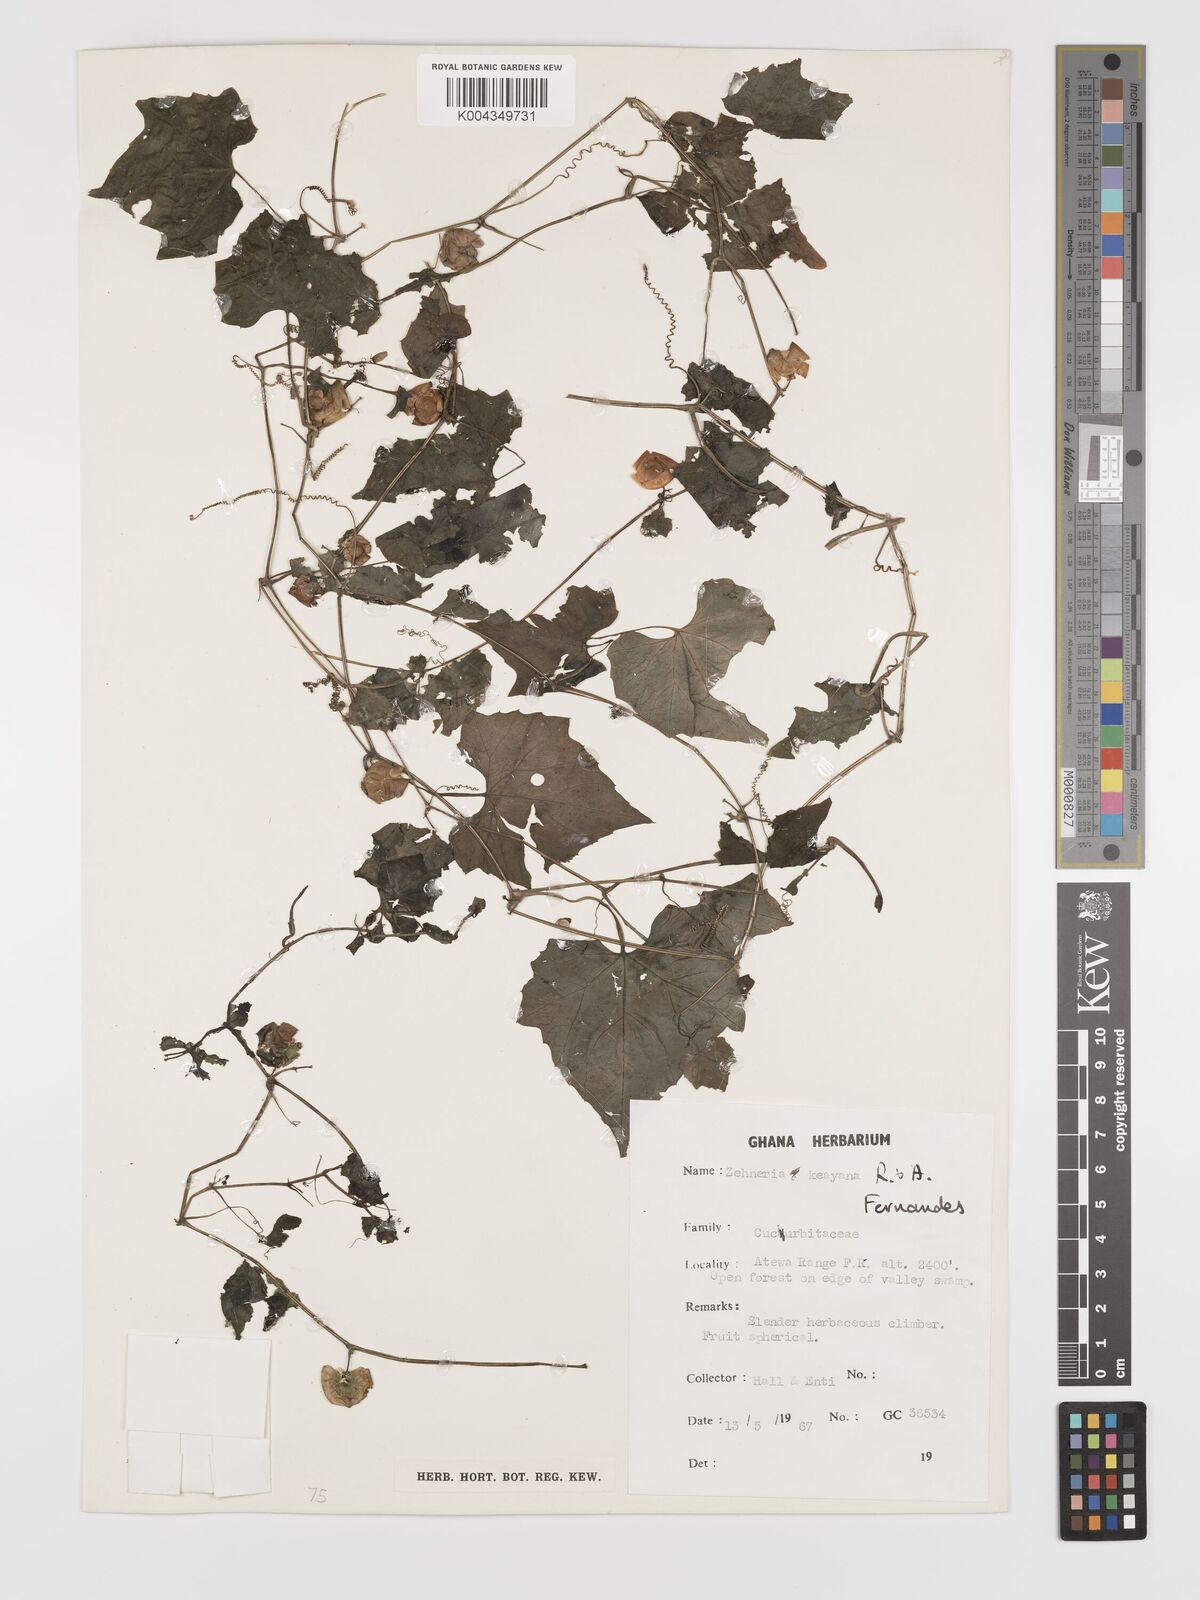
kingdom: Plantae
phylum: Tracheophyta
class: Magnoliopsida
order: Cucurbitales
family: Cucurbitaceae
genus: Zehneria
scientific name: Zehneria scabra
